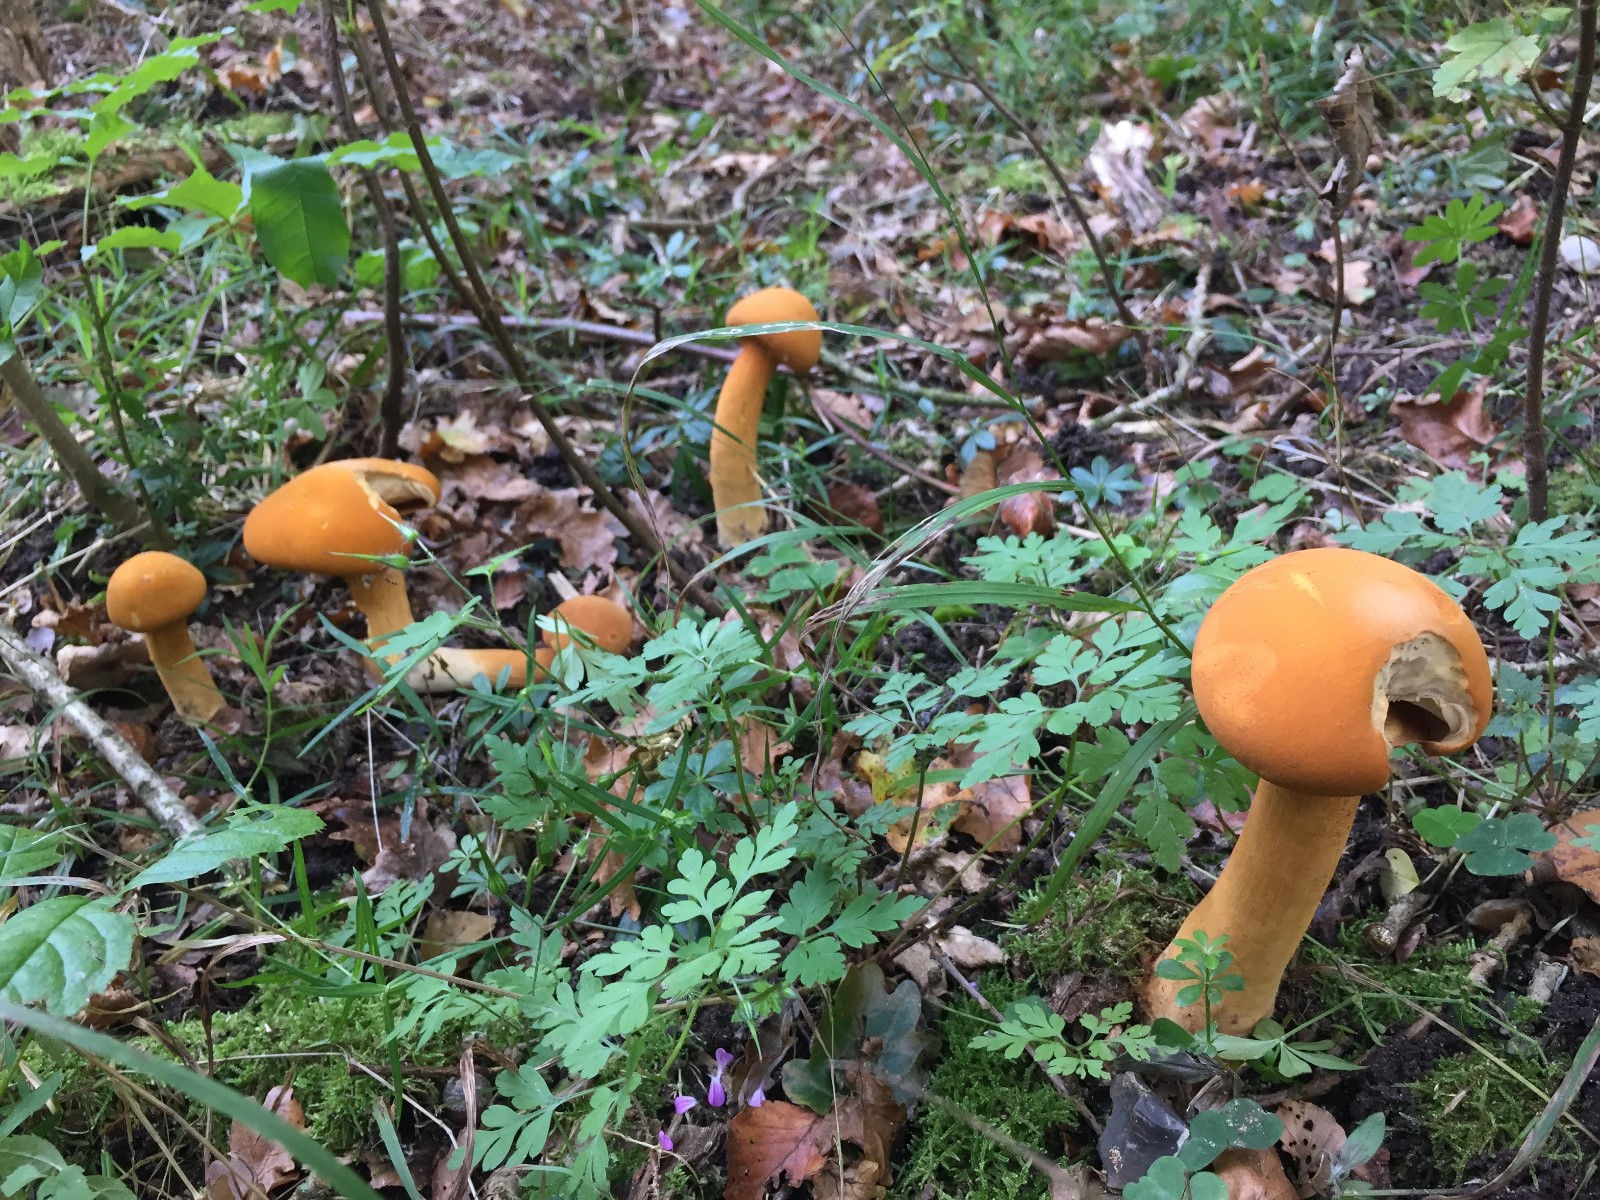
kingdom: Fungi
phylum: Basidiomycota
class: Agaricomycetes
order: Agaricales
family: Tricholomataceae
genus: Phaeolepiota
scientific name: Phaeolepiota aurea
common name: gyldenhat
